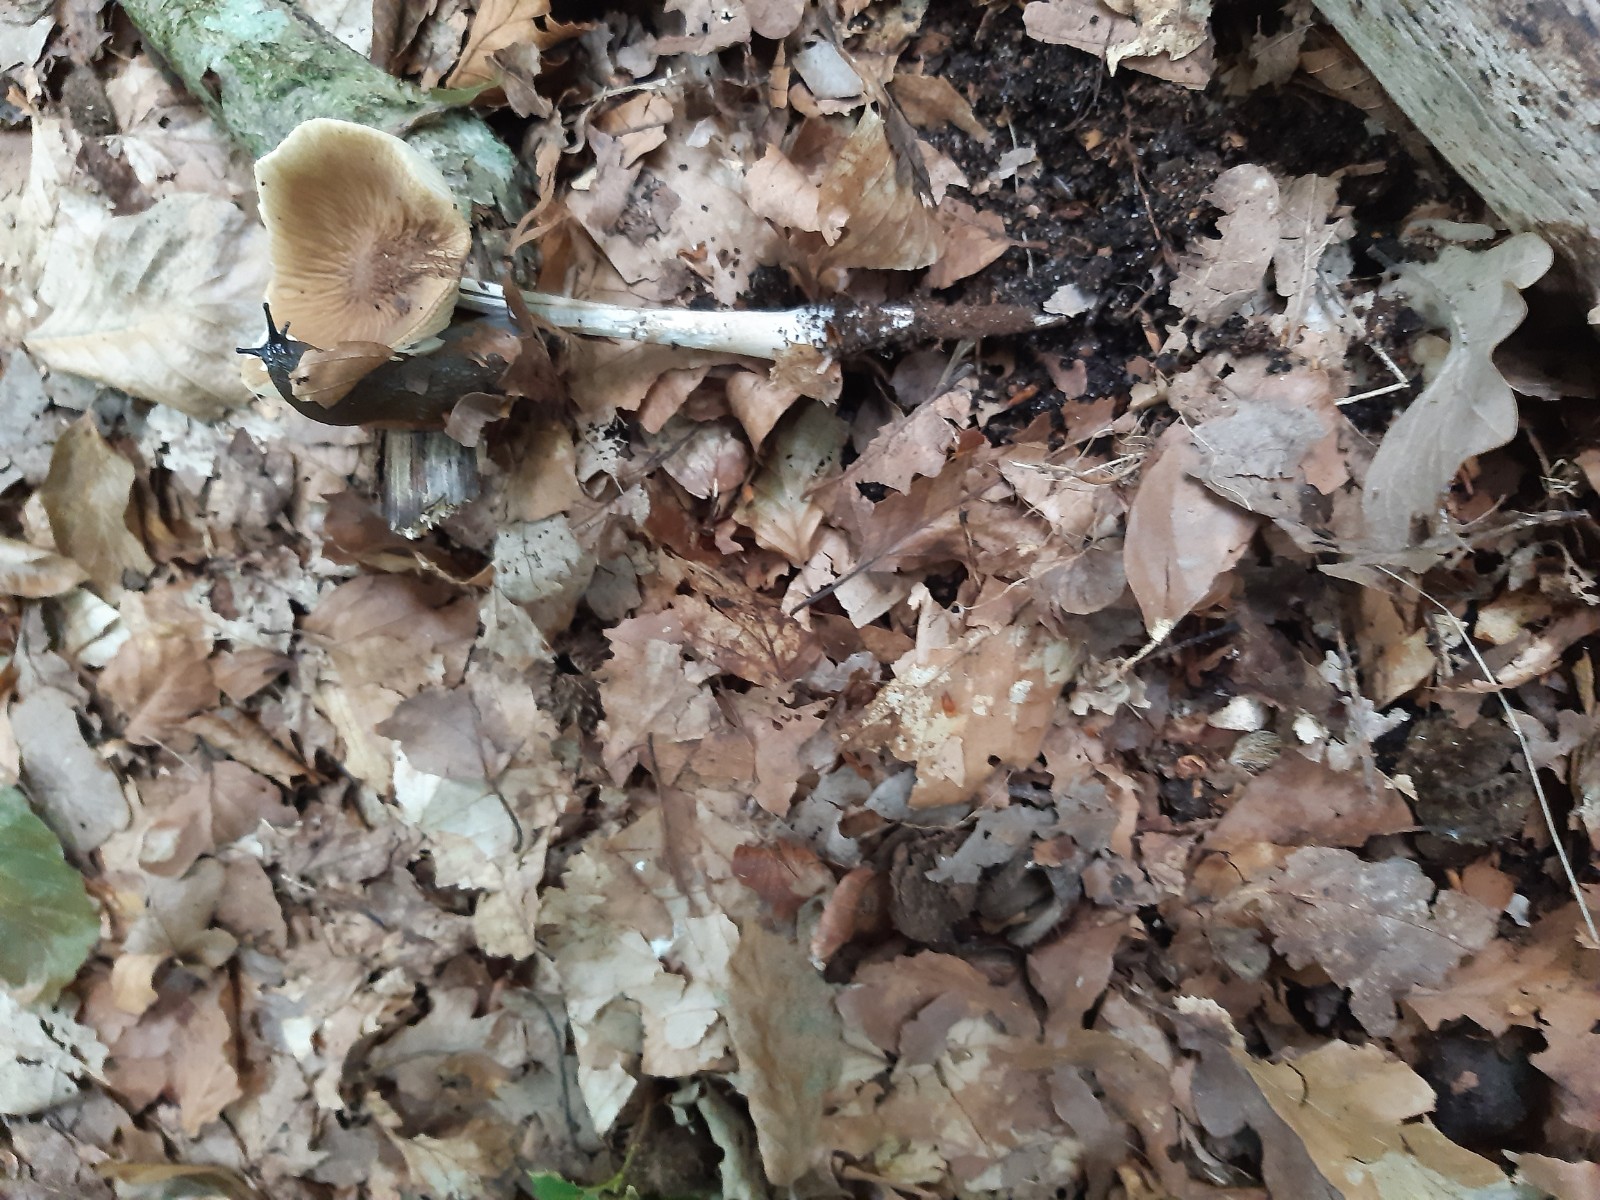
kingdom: Fungi
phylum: Basidiomycota
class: Agaricomycetes
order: Agaricales
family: Physalacriaceae
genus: Hymenopellis
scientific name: Hymenopellis radicata
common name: almindelig pælerodshat
